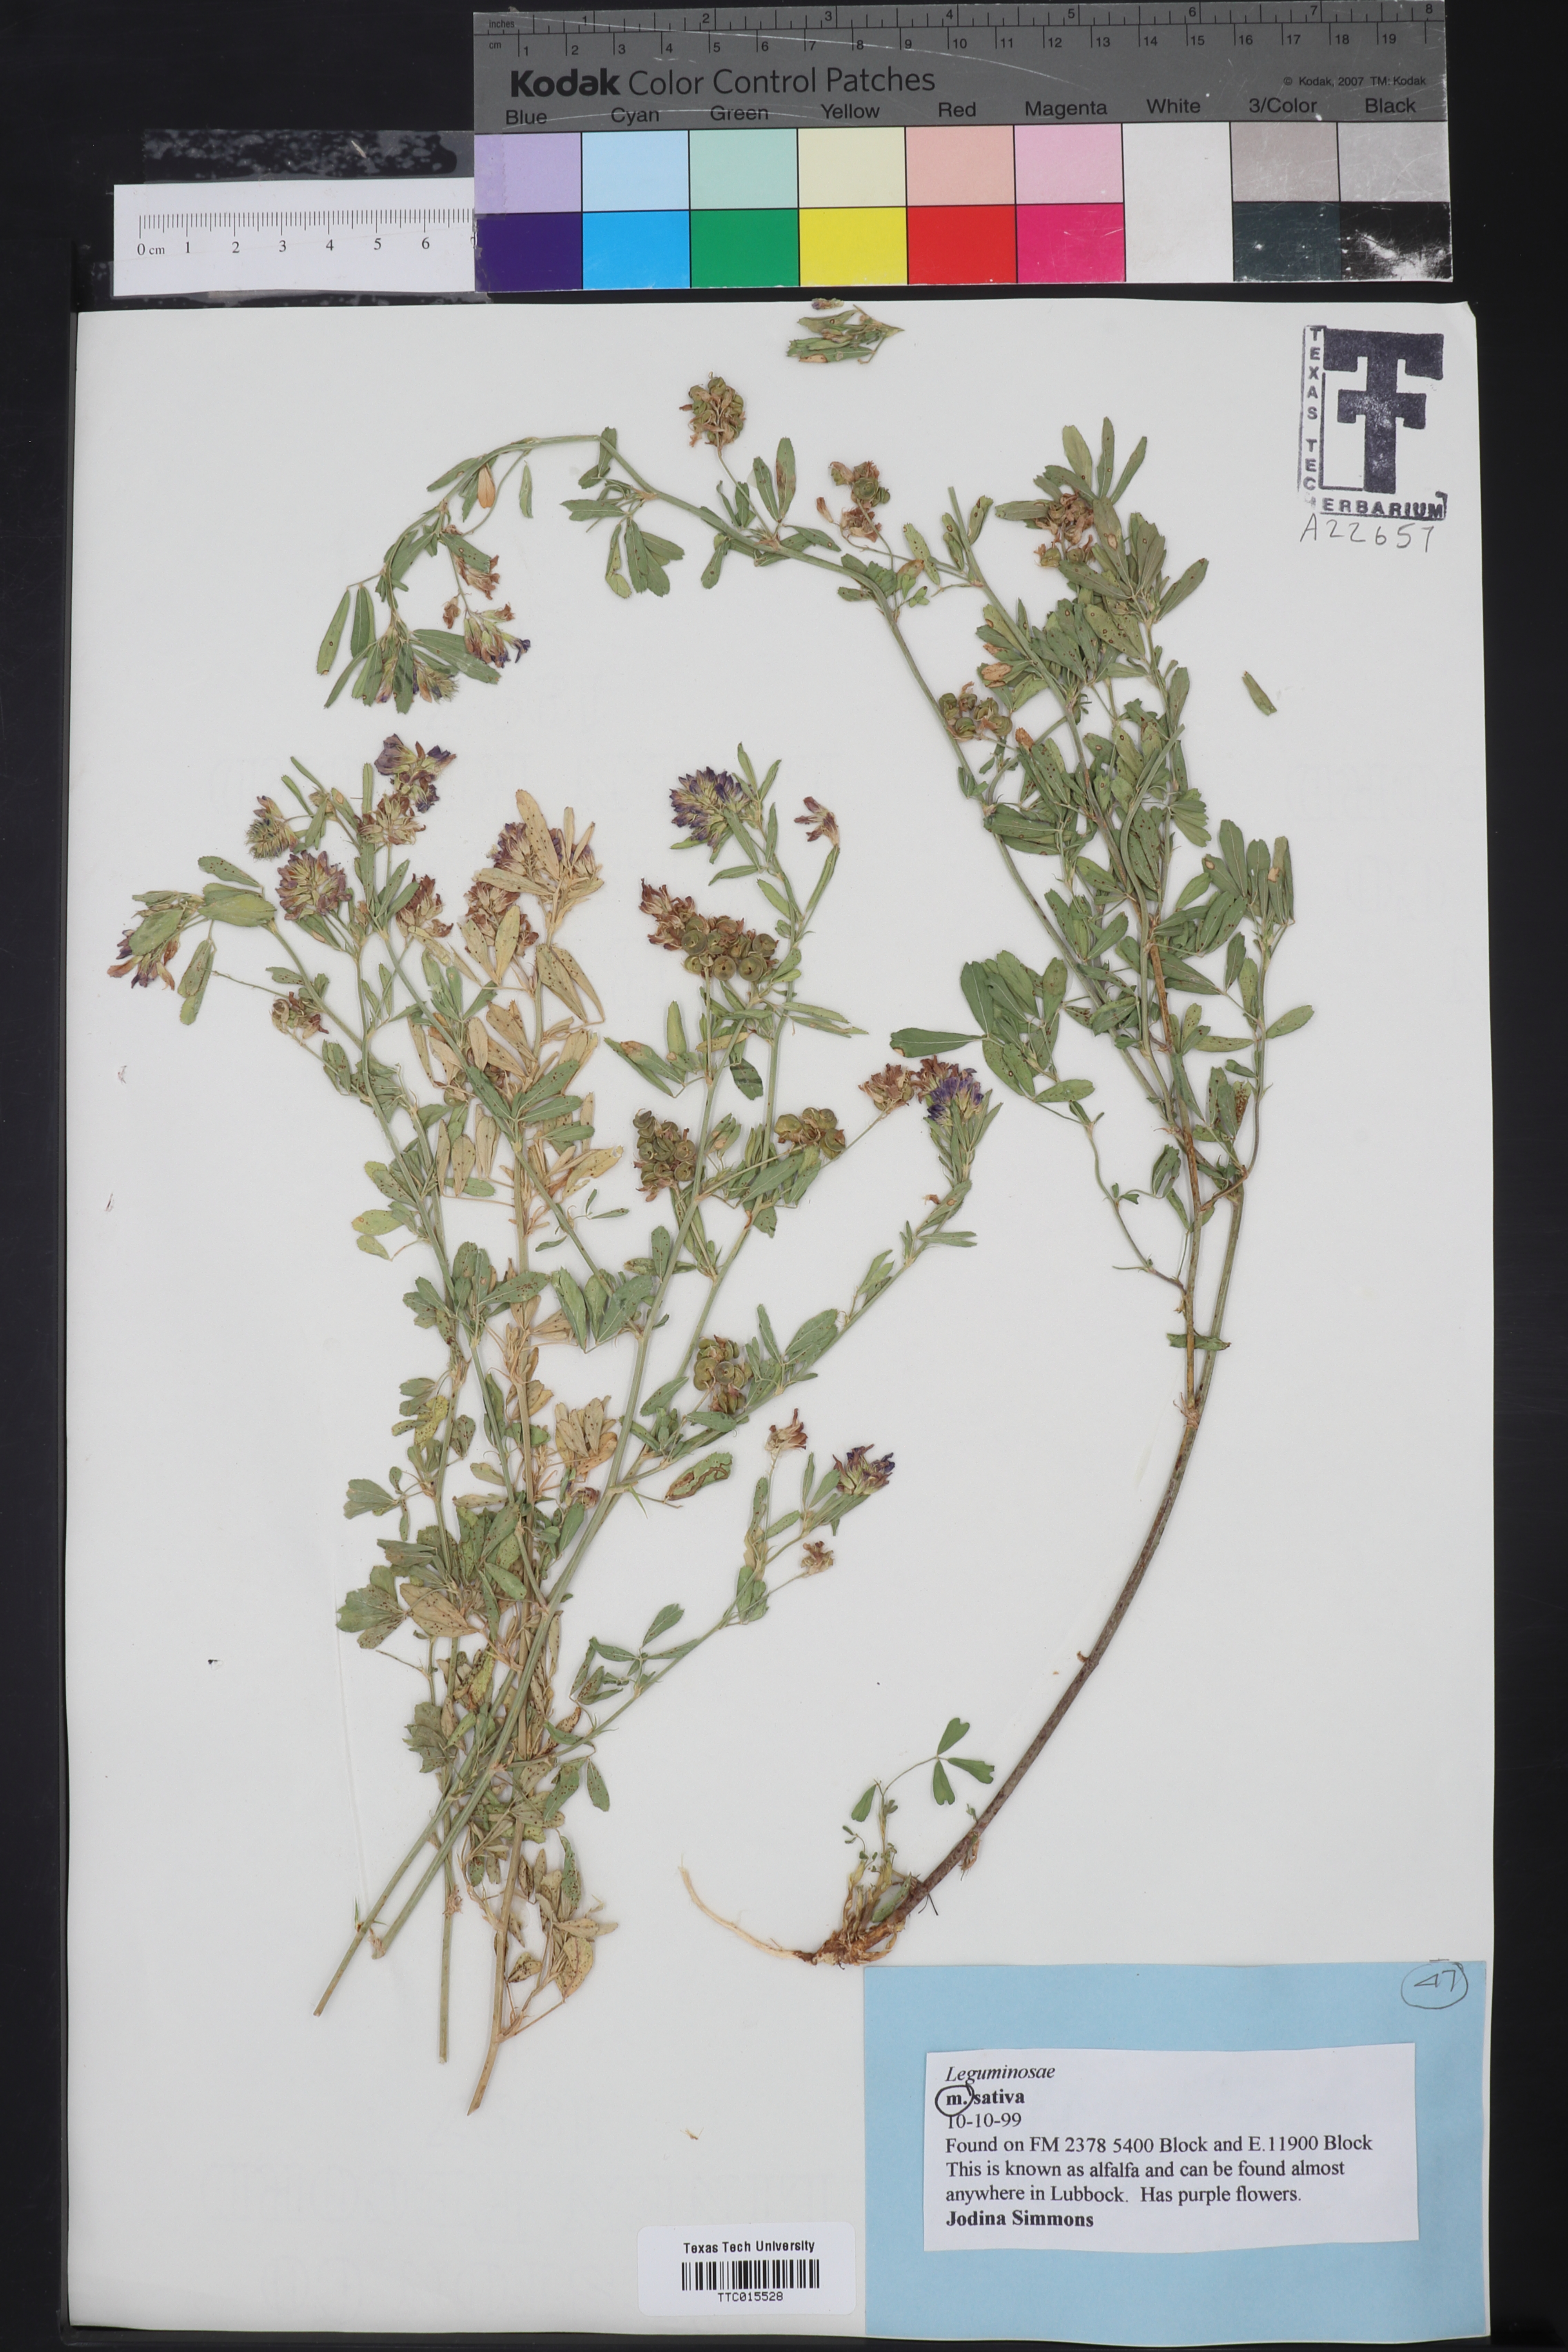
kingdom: Plantae
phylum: Tracheophyta
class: Magnoliopsida
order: Fabales
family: Fabaceae
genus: Medicago
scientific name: Medicago sativa
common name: Alfalfa
